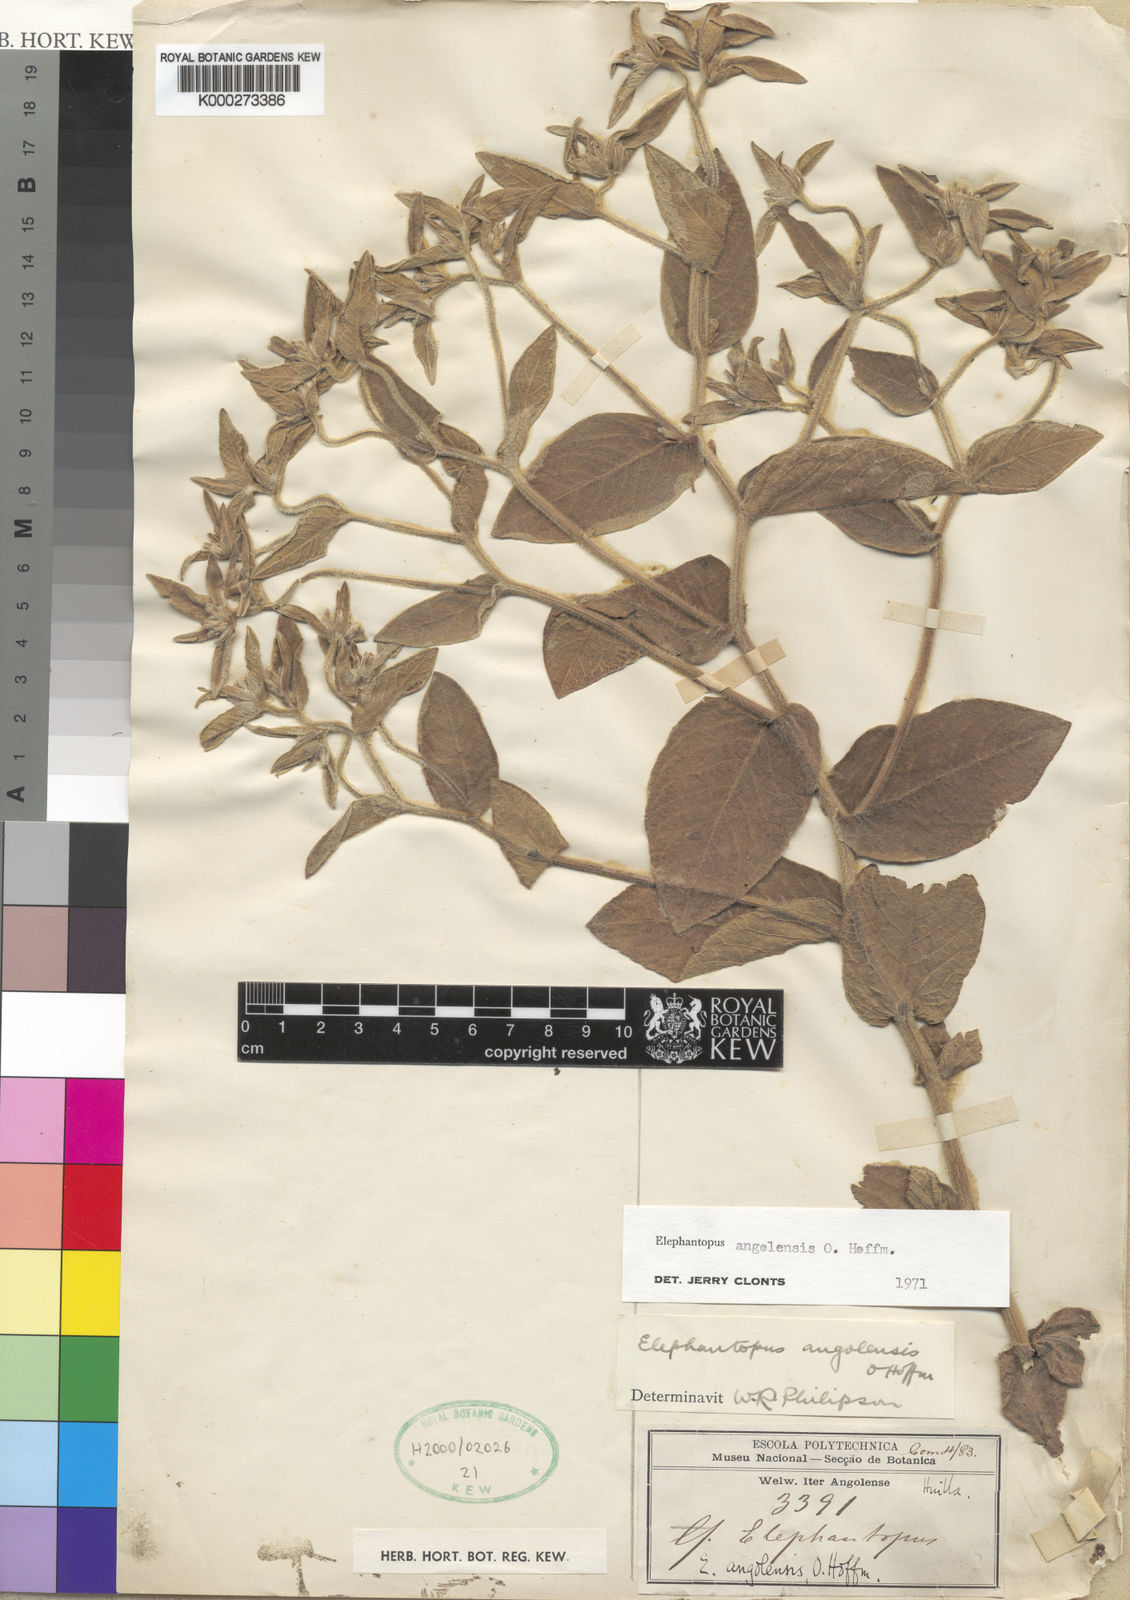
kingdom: Plantae
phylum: Tracheophyta
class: Magnoliopsida
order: Asterales
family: Asteraceae
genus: Elephantopus
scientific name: Elephantopus angolensis
